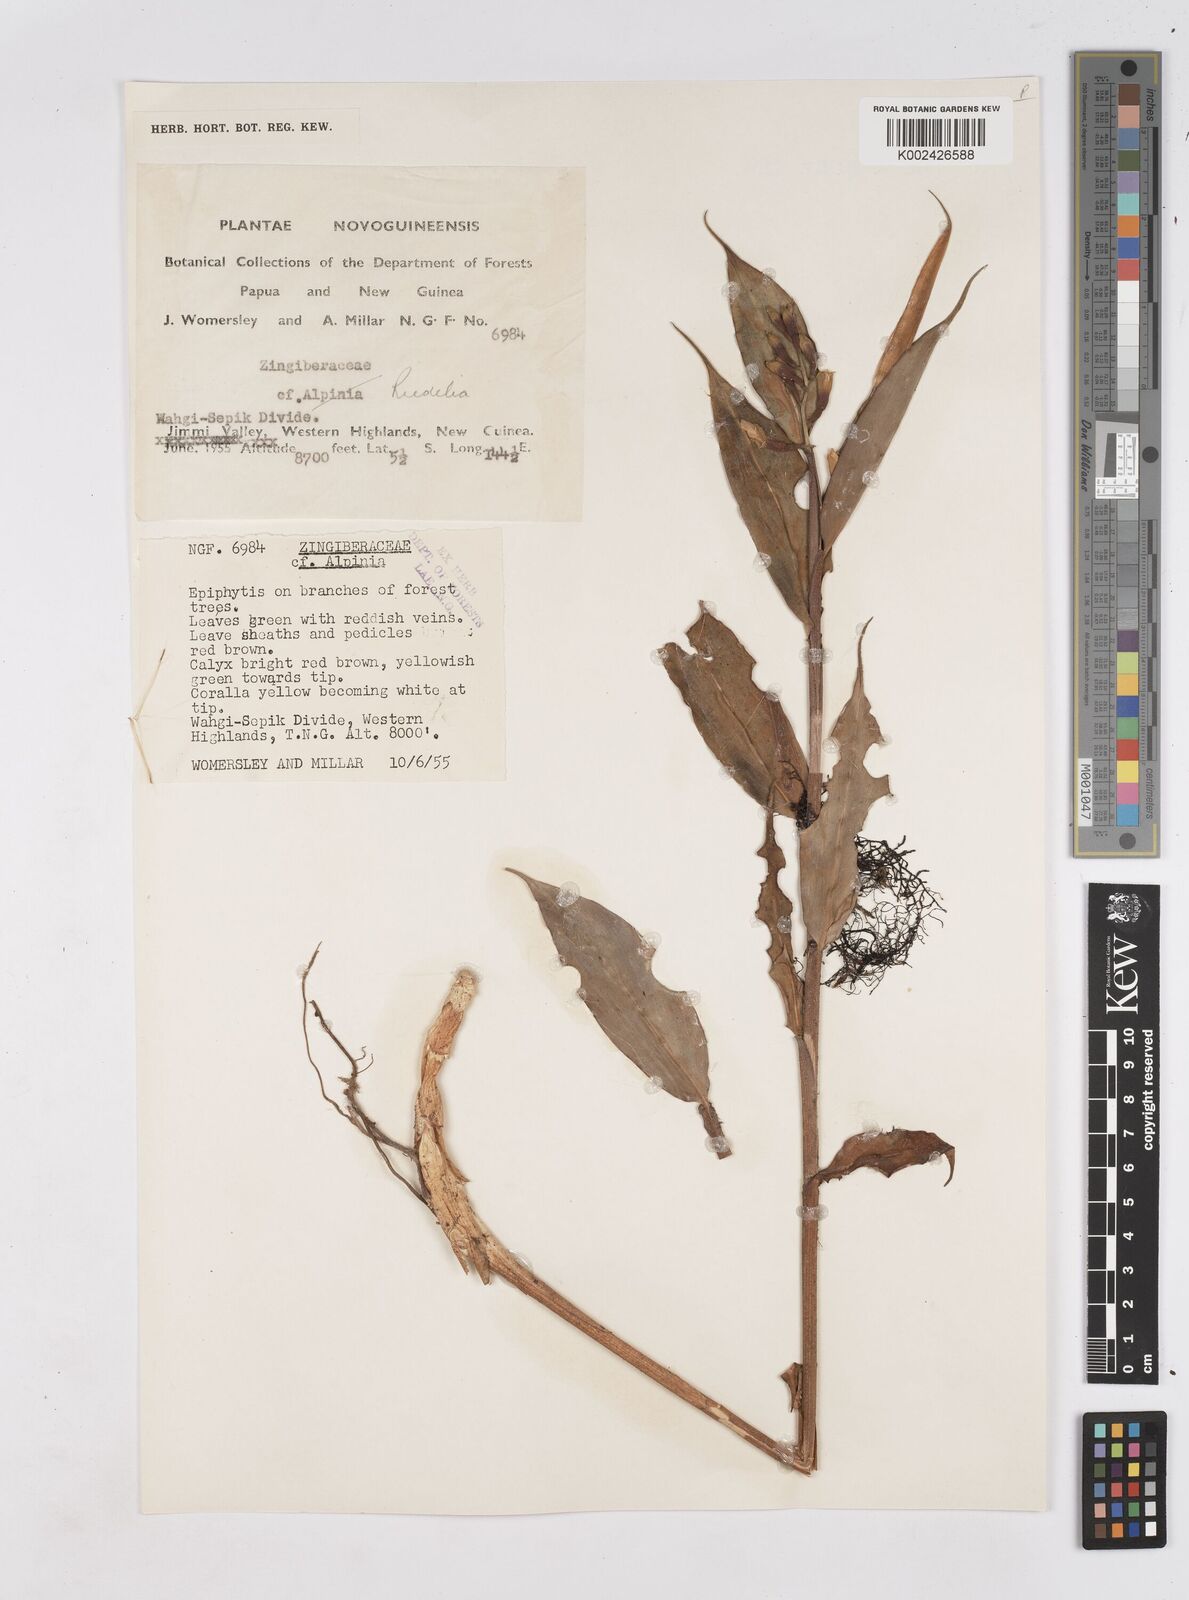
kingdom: Plantae
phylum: Tracheophyta
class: Liliopsida
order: Zingiberales
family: Zingiberaceae
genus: Riedelia
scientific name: Riedelia
